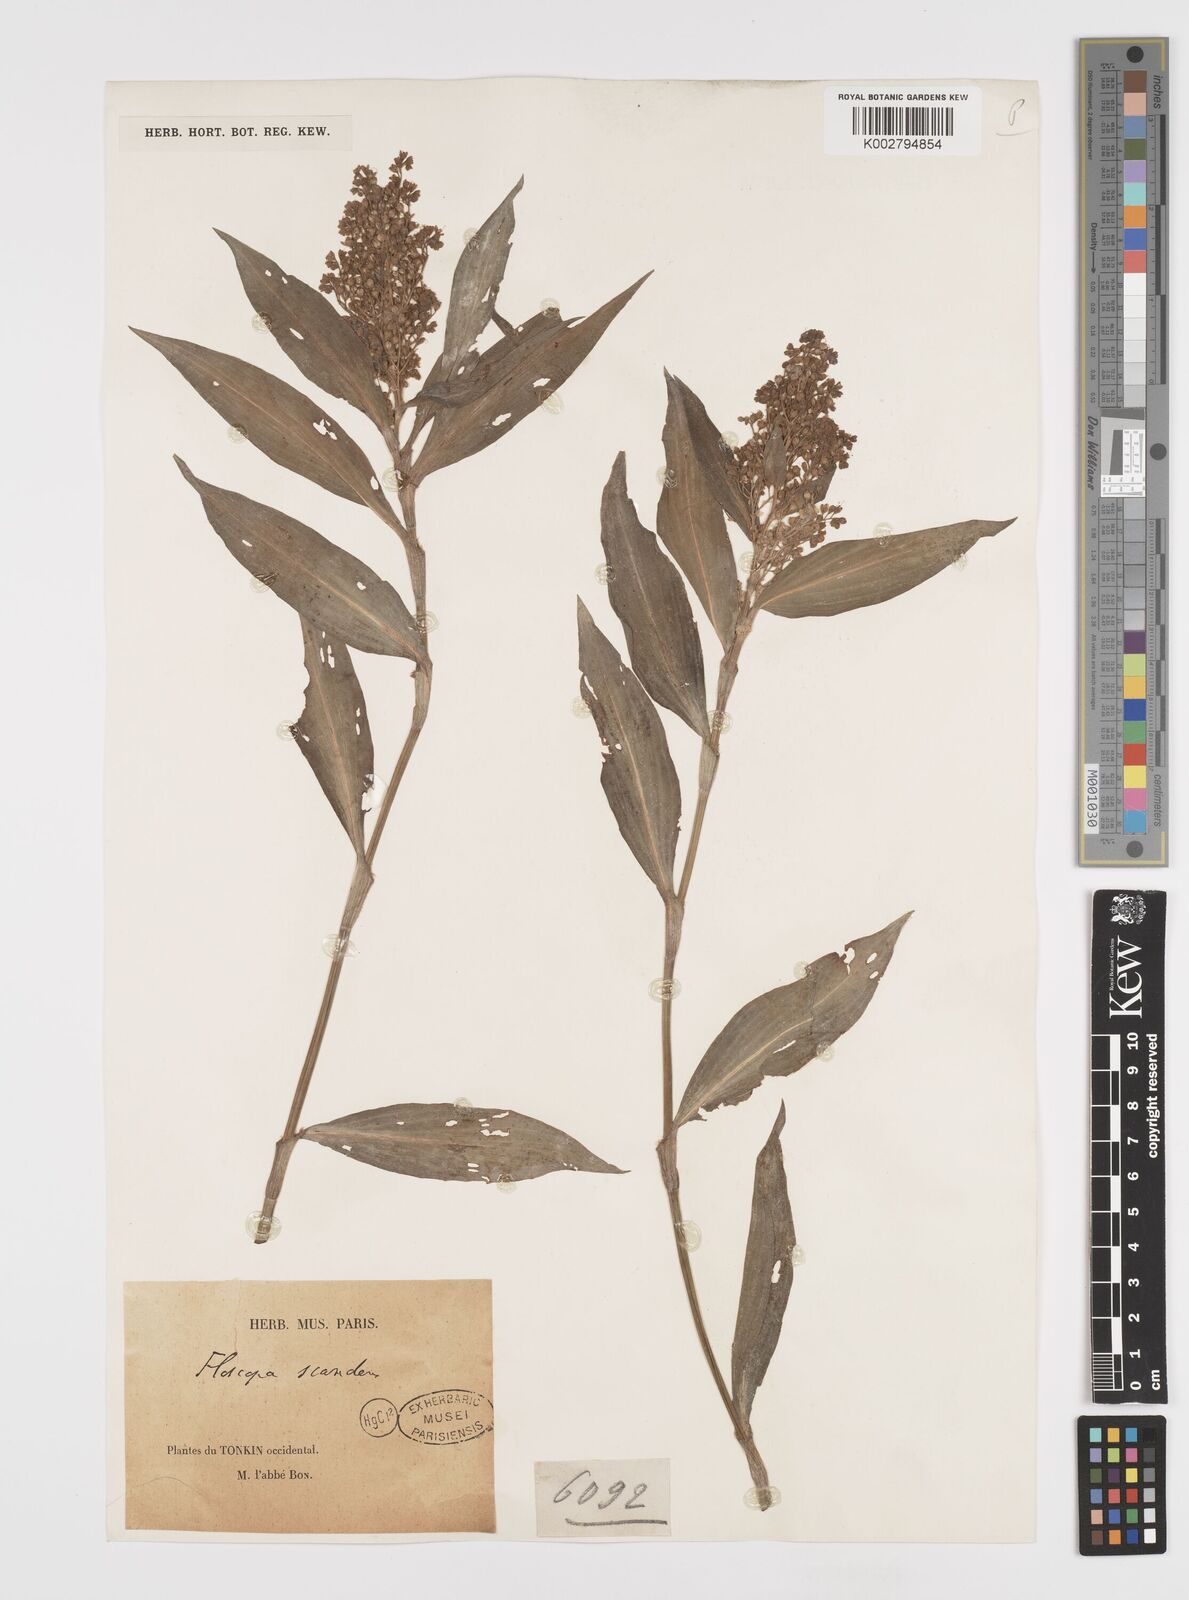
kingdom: Plantae
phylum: Tracheophyta
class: Liliopsida
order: Commelinales
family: Commelinaceae
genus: Floscopa
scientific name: Floscopa scandens
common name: Climbing flower cup
